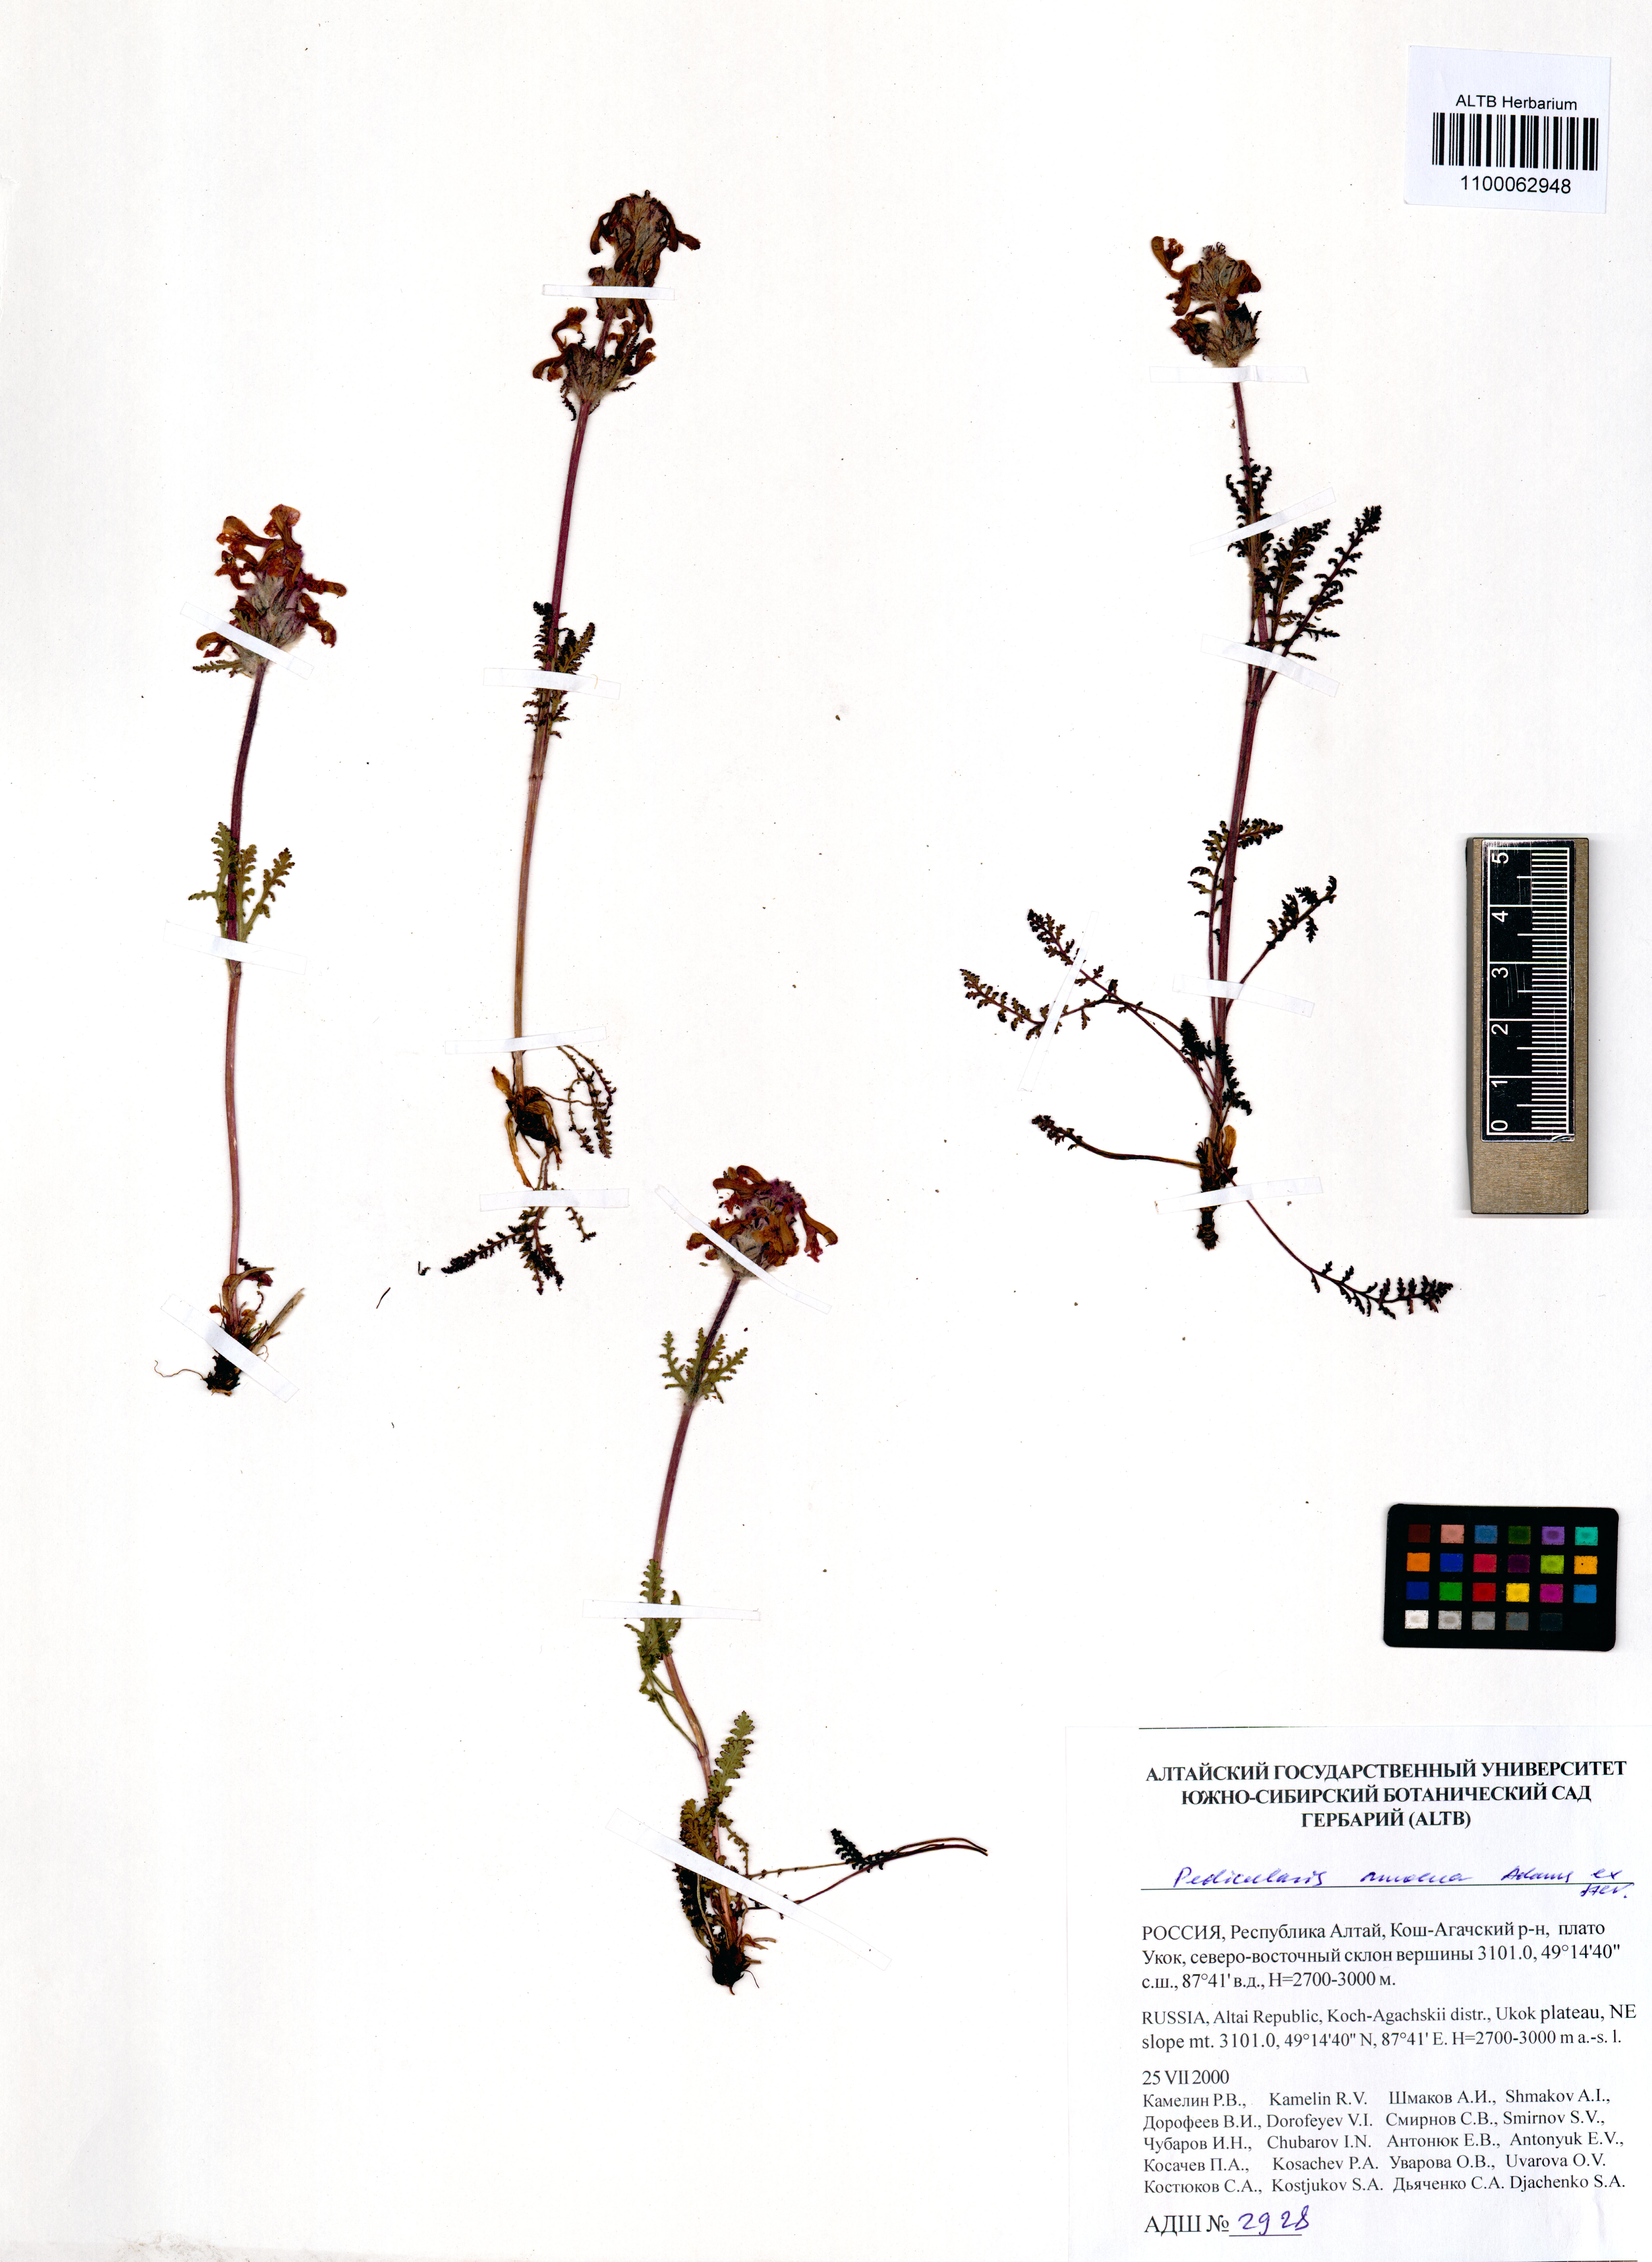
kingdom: Plantae
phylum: Tracheophyta
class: Magnoliopsida
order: Lamiales
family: Orobanchaceae
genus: Pedicularis
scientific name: Pedicularis amoena
